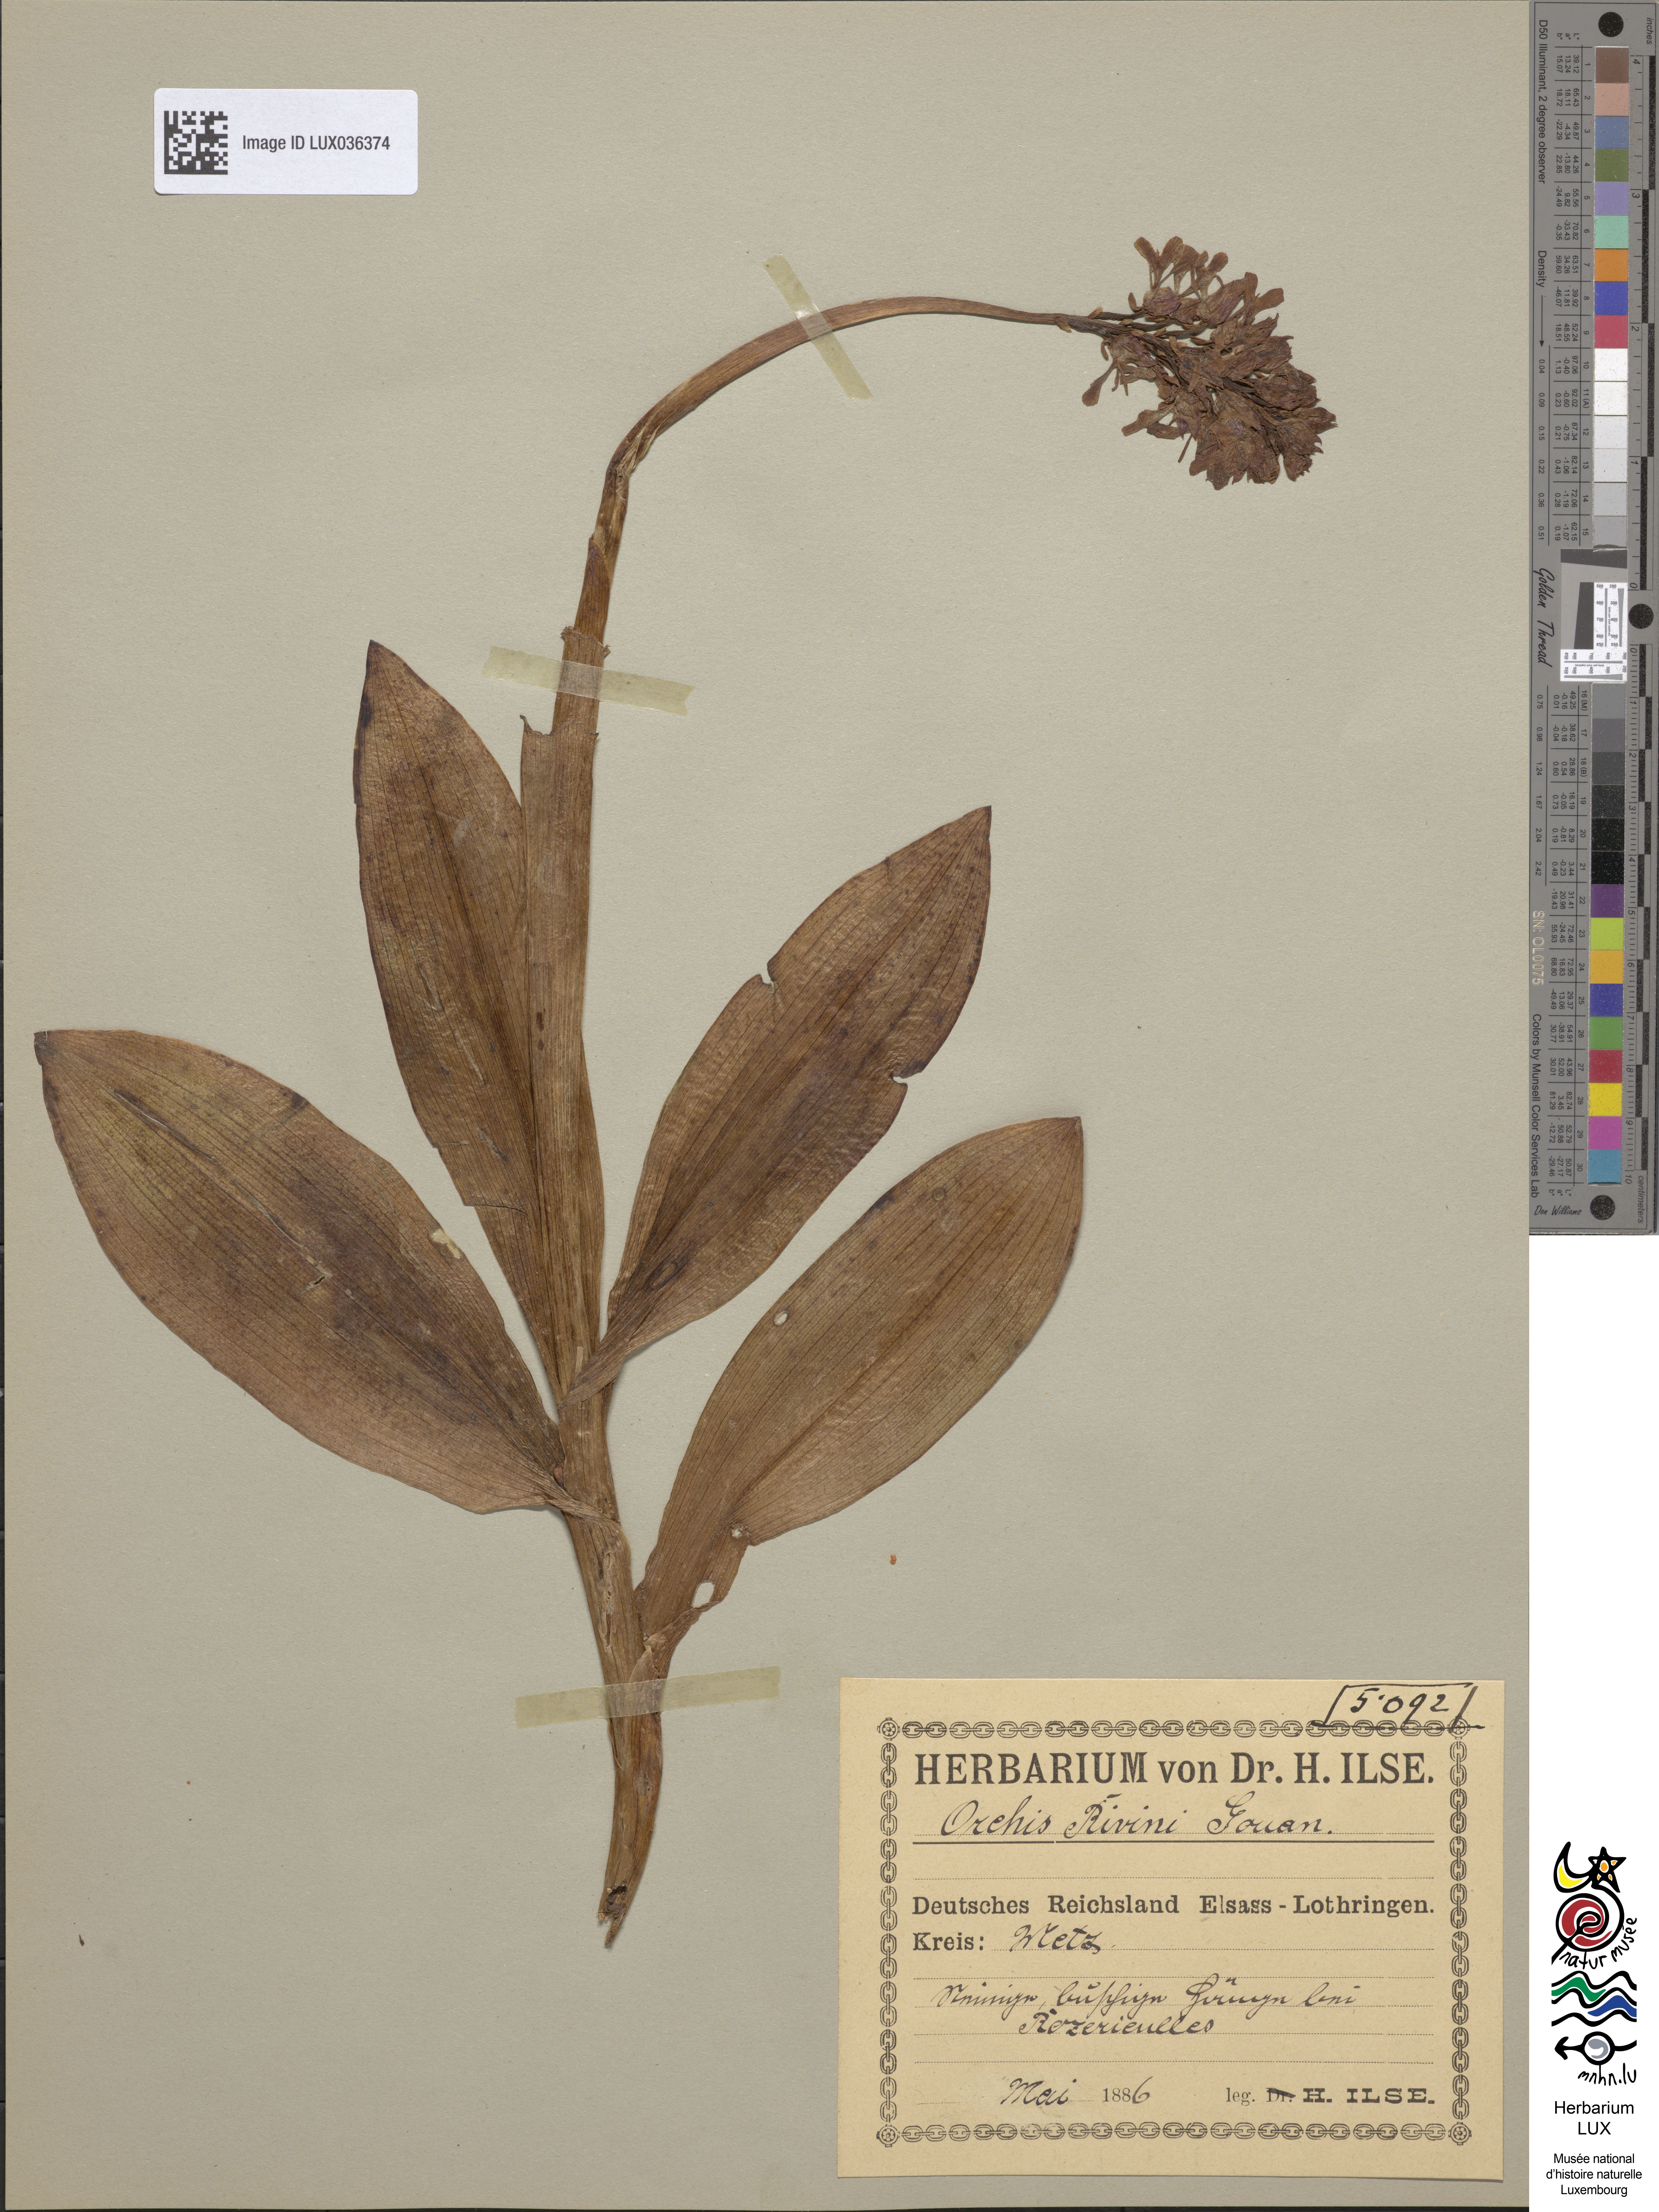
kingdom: Plantae
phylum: Tracheophyta
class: Liliopsida
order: Asparagales
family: Orchidaceae
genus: Orchis
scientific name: Orchis militaris
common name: Military orchid
